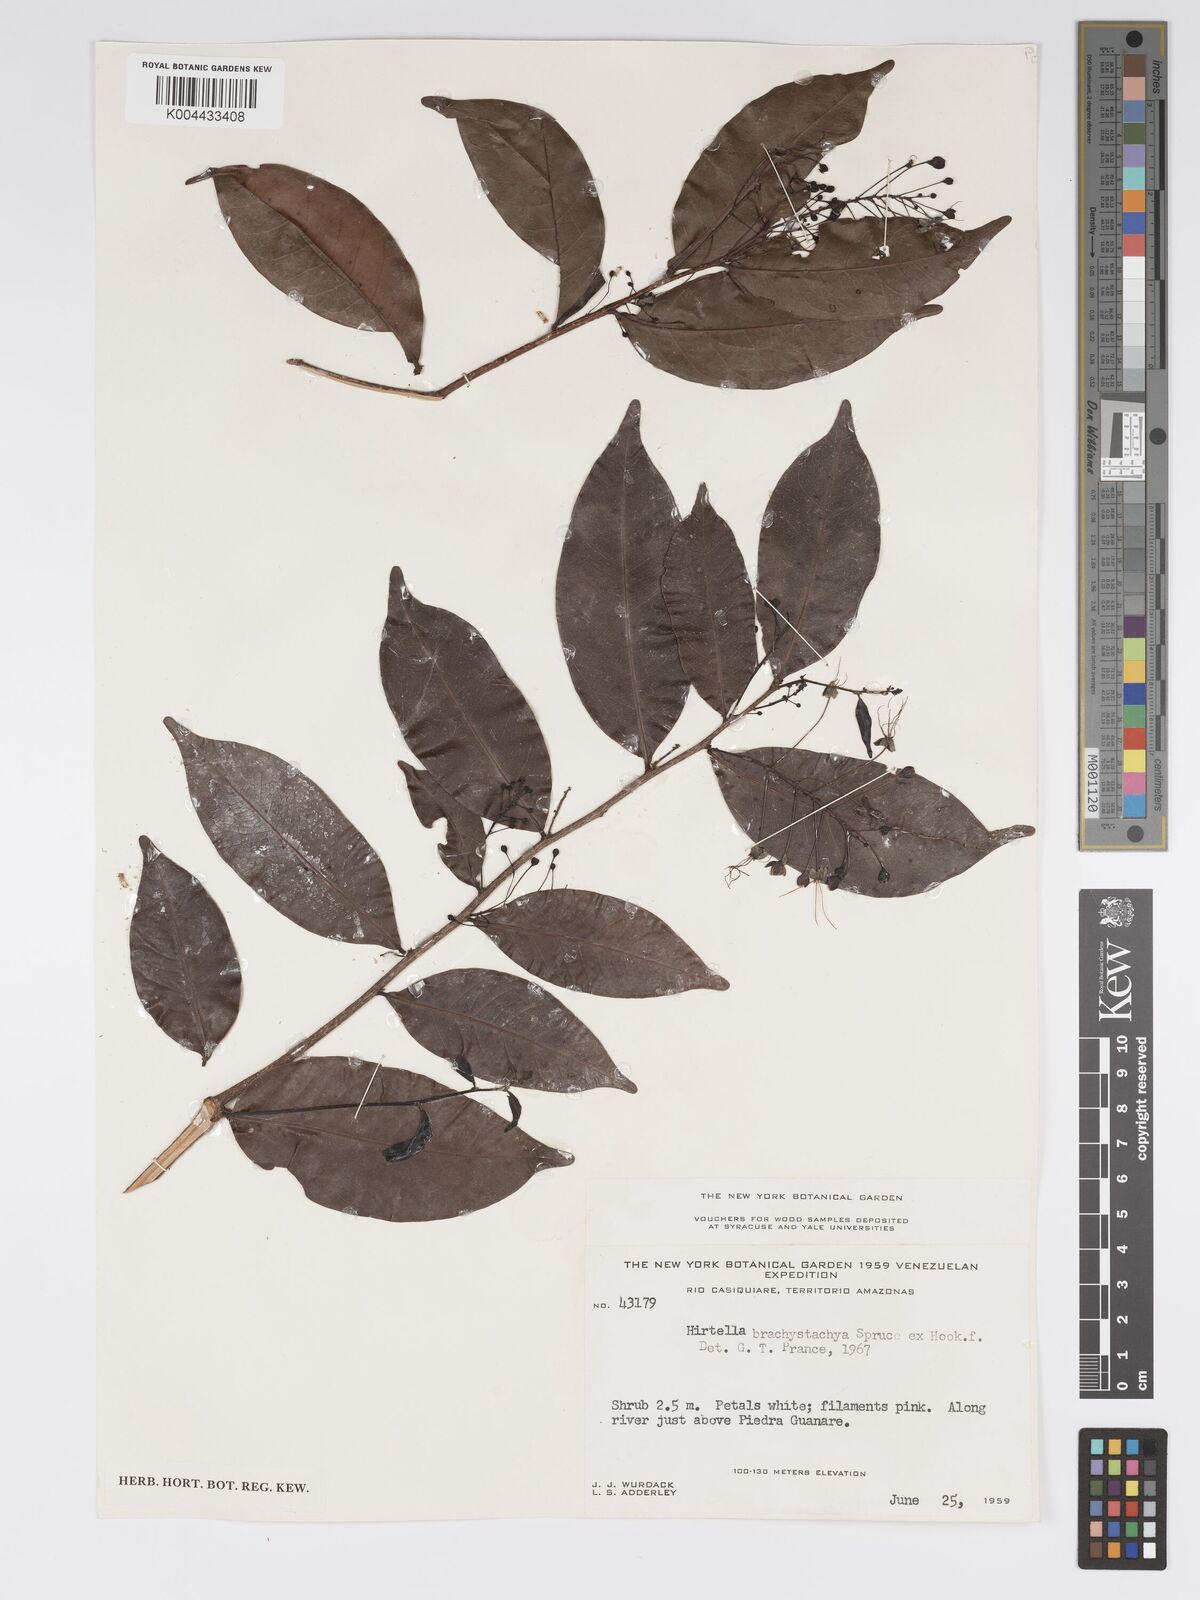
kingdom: Plantae
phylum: Tracheophyta
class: Magnoliopsida
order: Malpighiales
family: Chrysobalanaceae
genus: Hirtella
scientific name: Hirtella brachystachya
